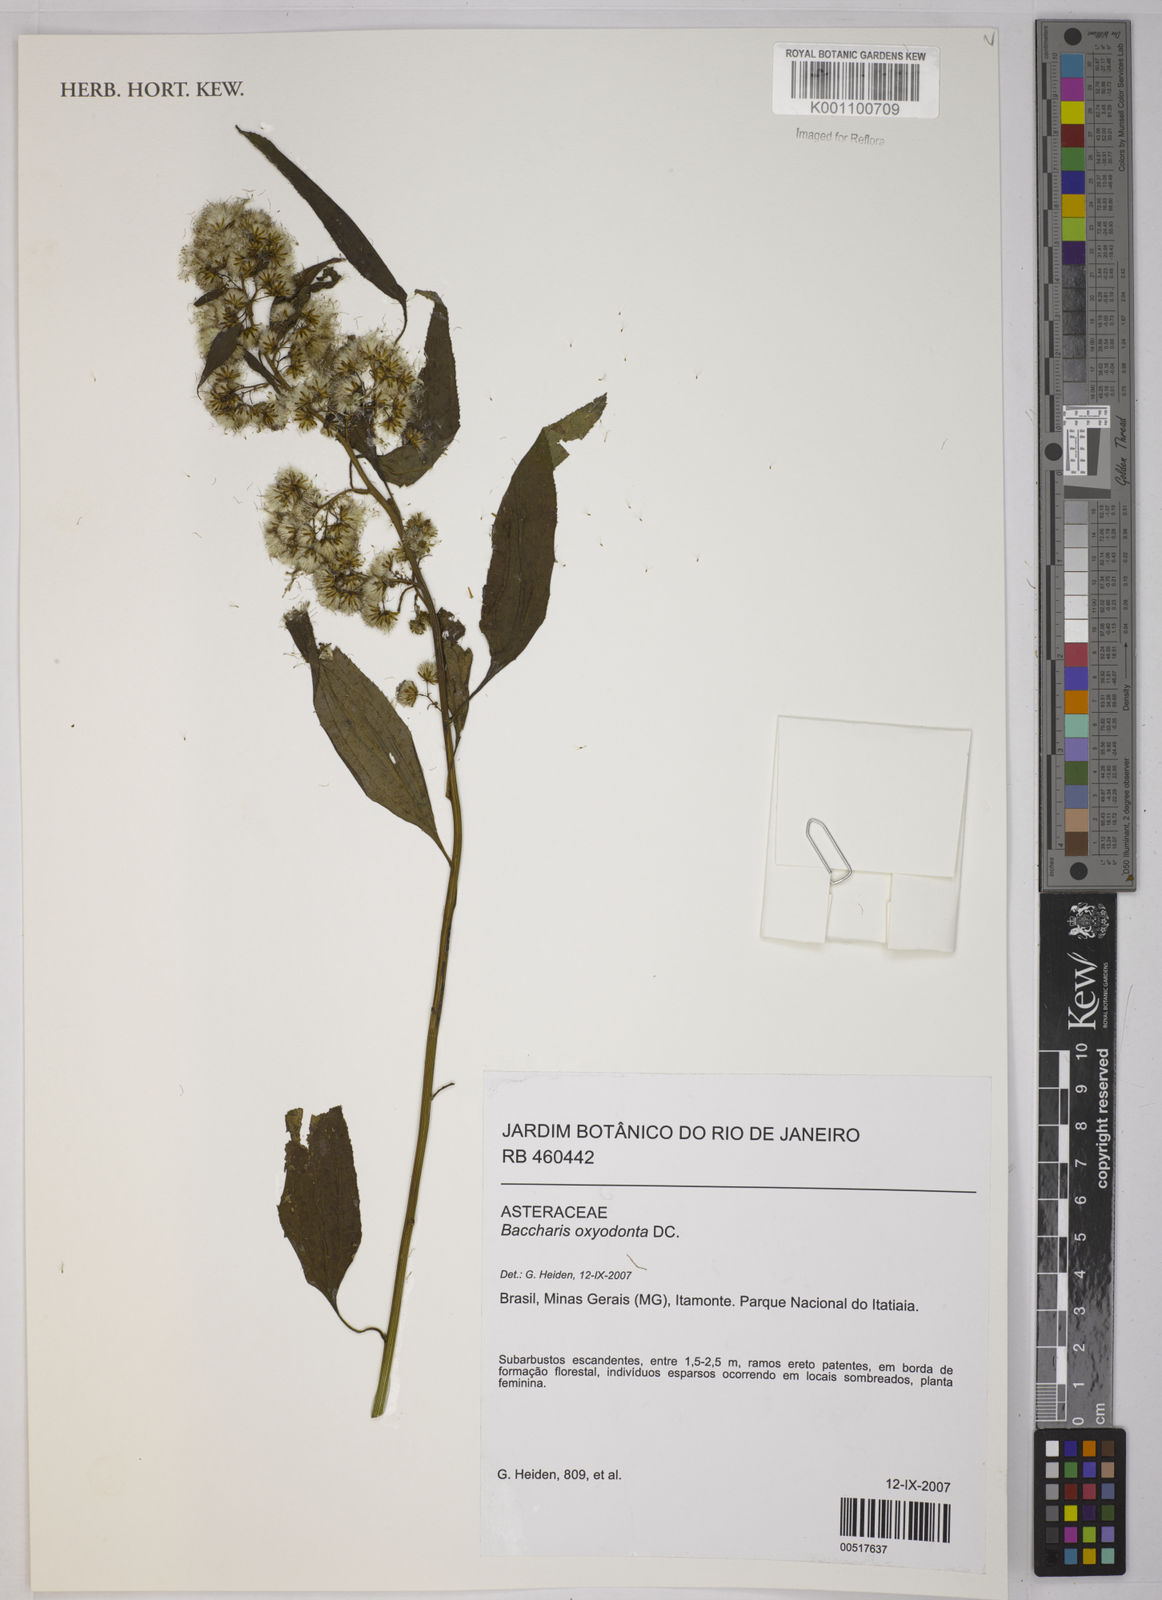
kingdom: Plantae
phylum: Tracheophyta
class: Magnoliopsida
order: Asterales
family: Asteraceae
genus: Baccharis
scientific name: Baccharis oxyodonta
